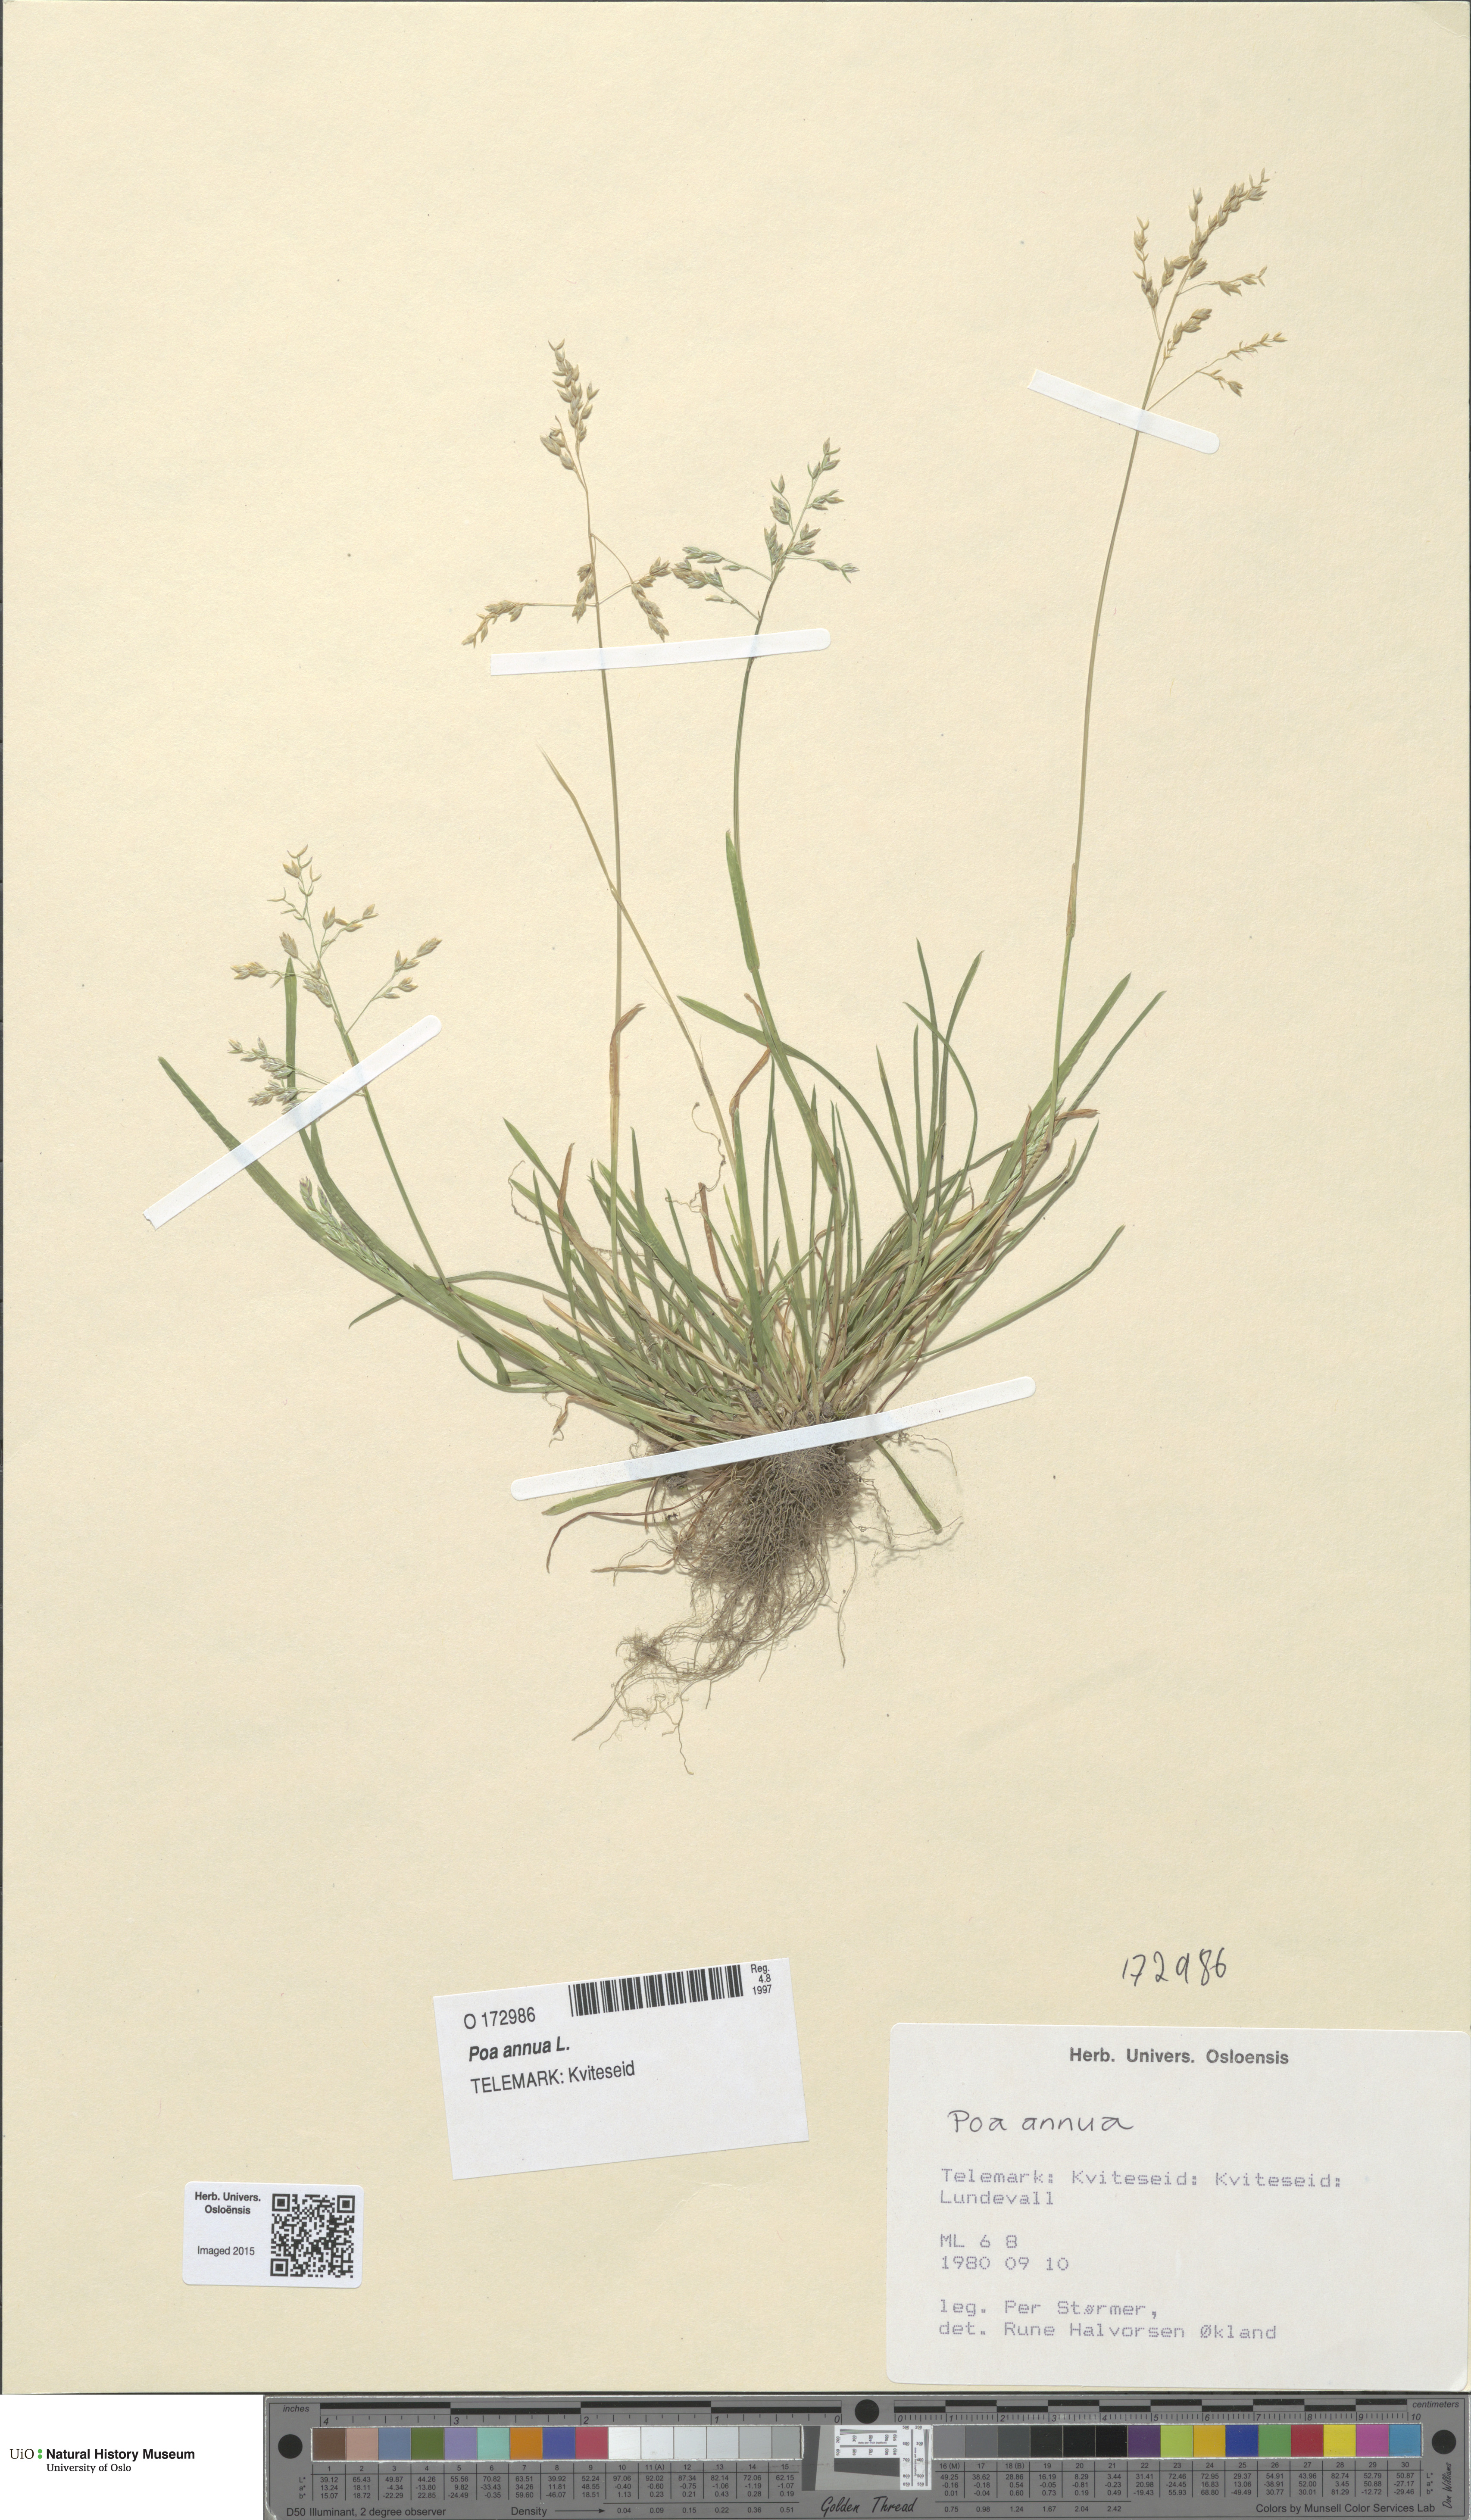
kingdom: Plantae
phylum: Tracheophyta
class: Liliopsida
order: Poales
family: Poaceae
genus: Poa
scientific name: Poa annua
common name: Annual bluegrass
